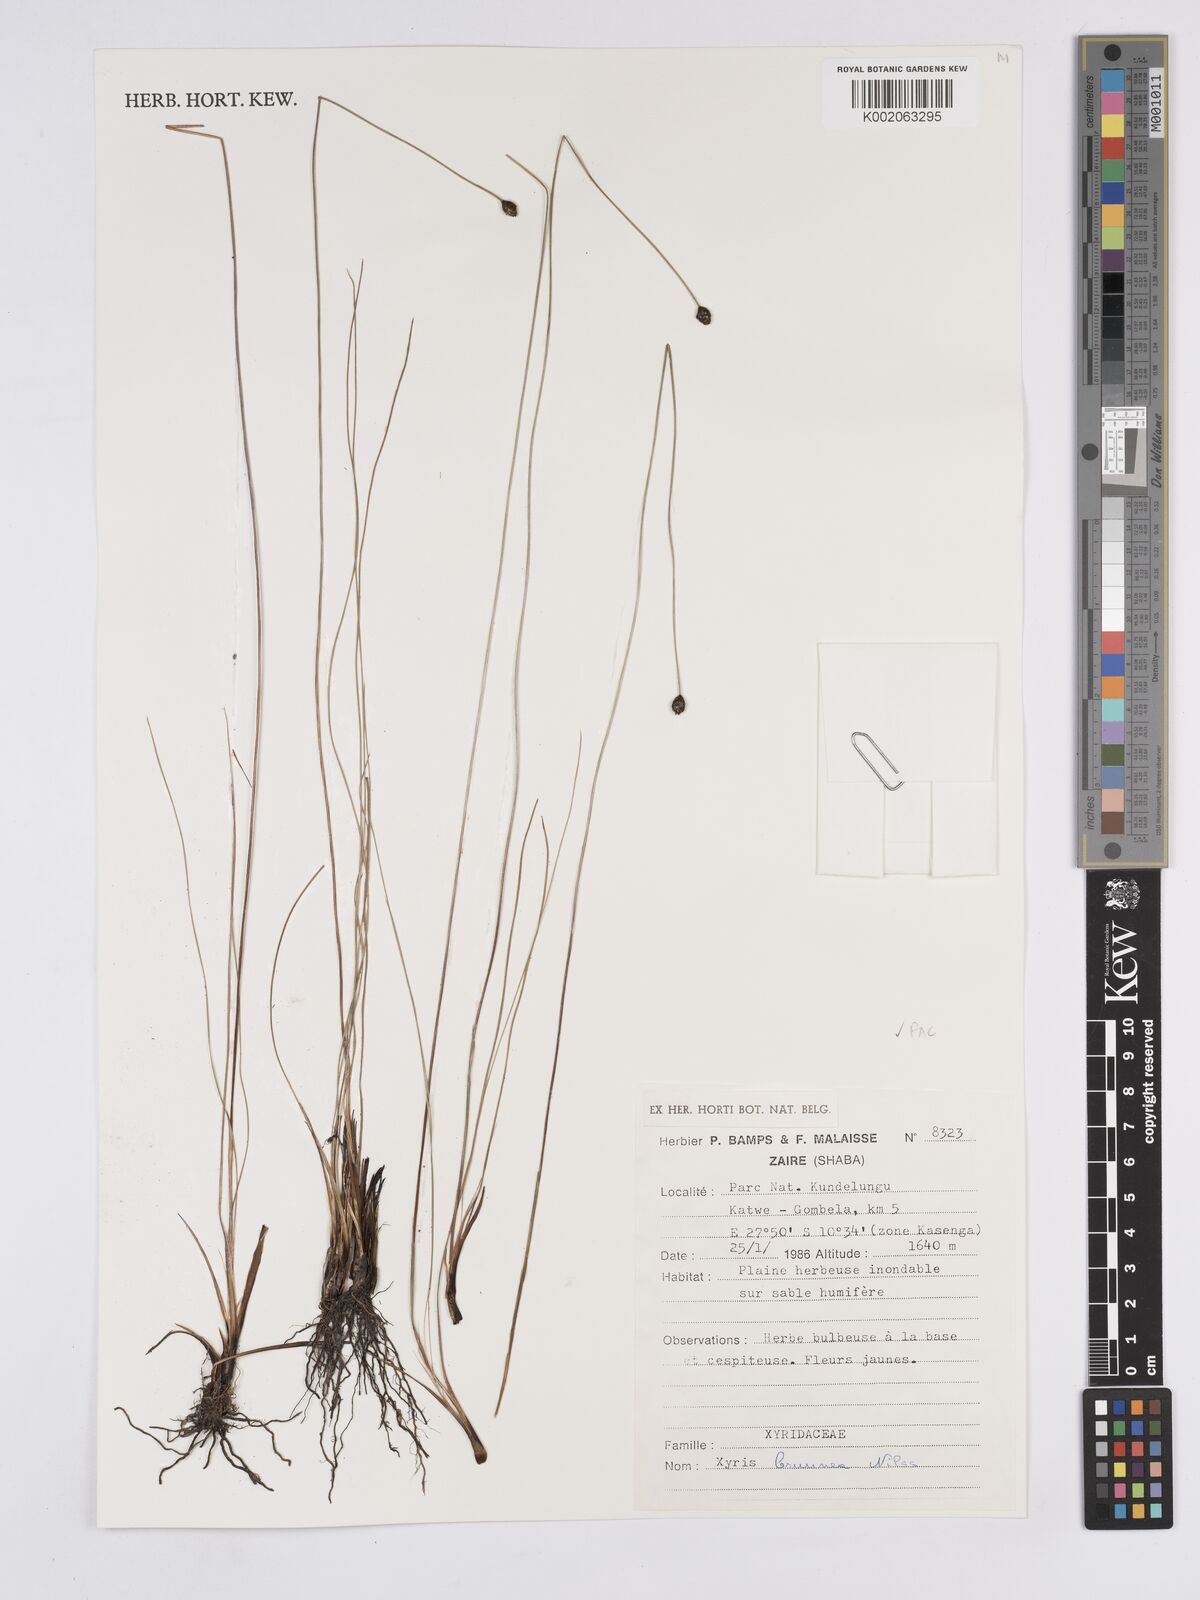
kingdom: Plantae
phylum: Tracheophyta
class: Liliopsida
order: Poales
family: Xyridaceae
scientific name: Xyridaceae
